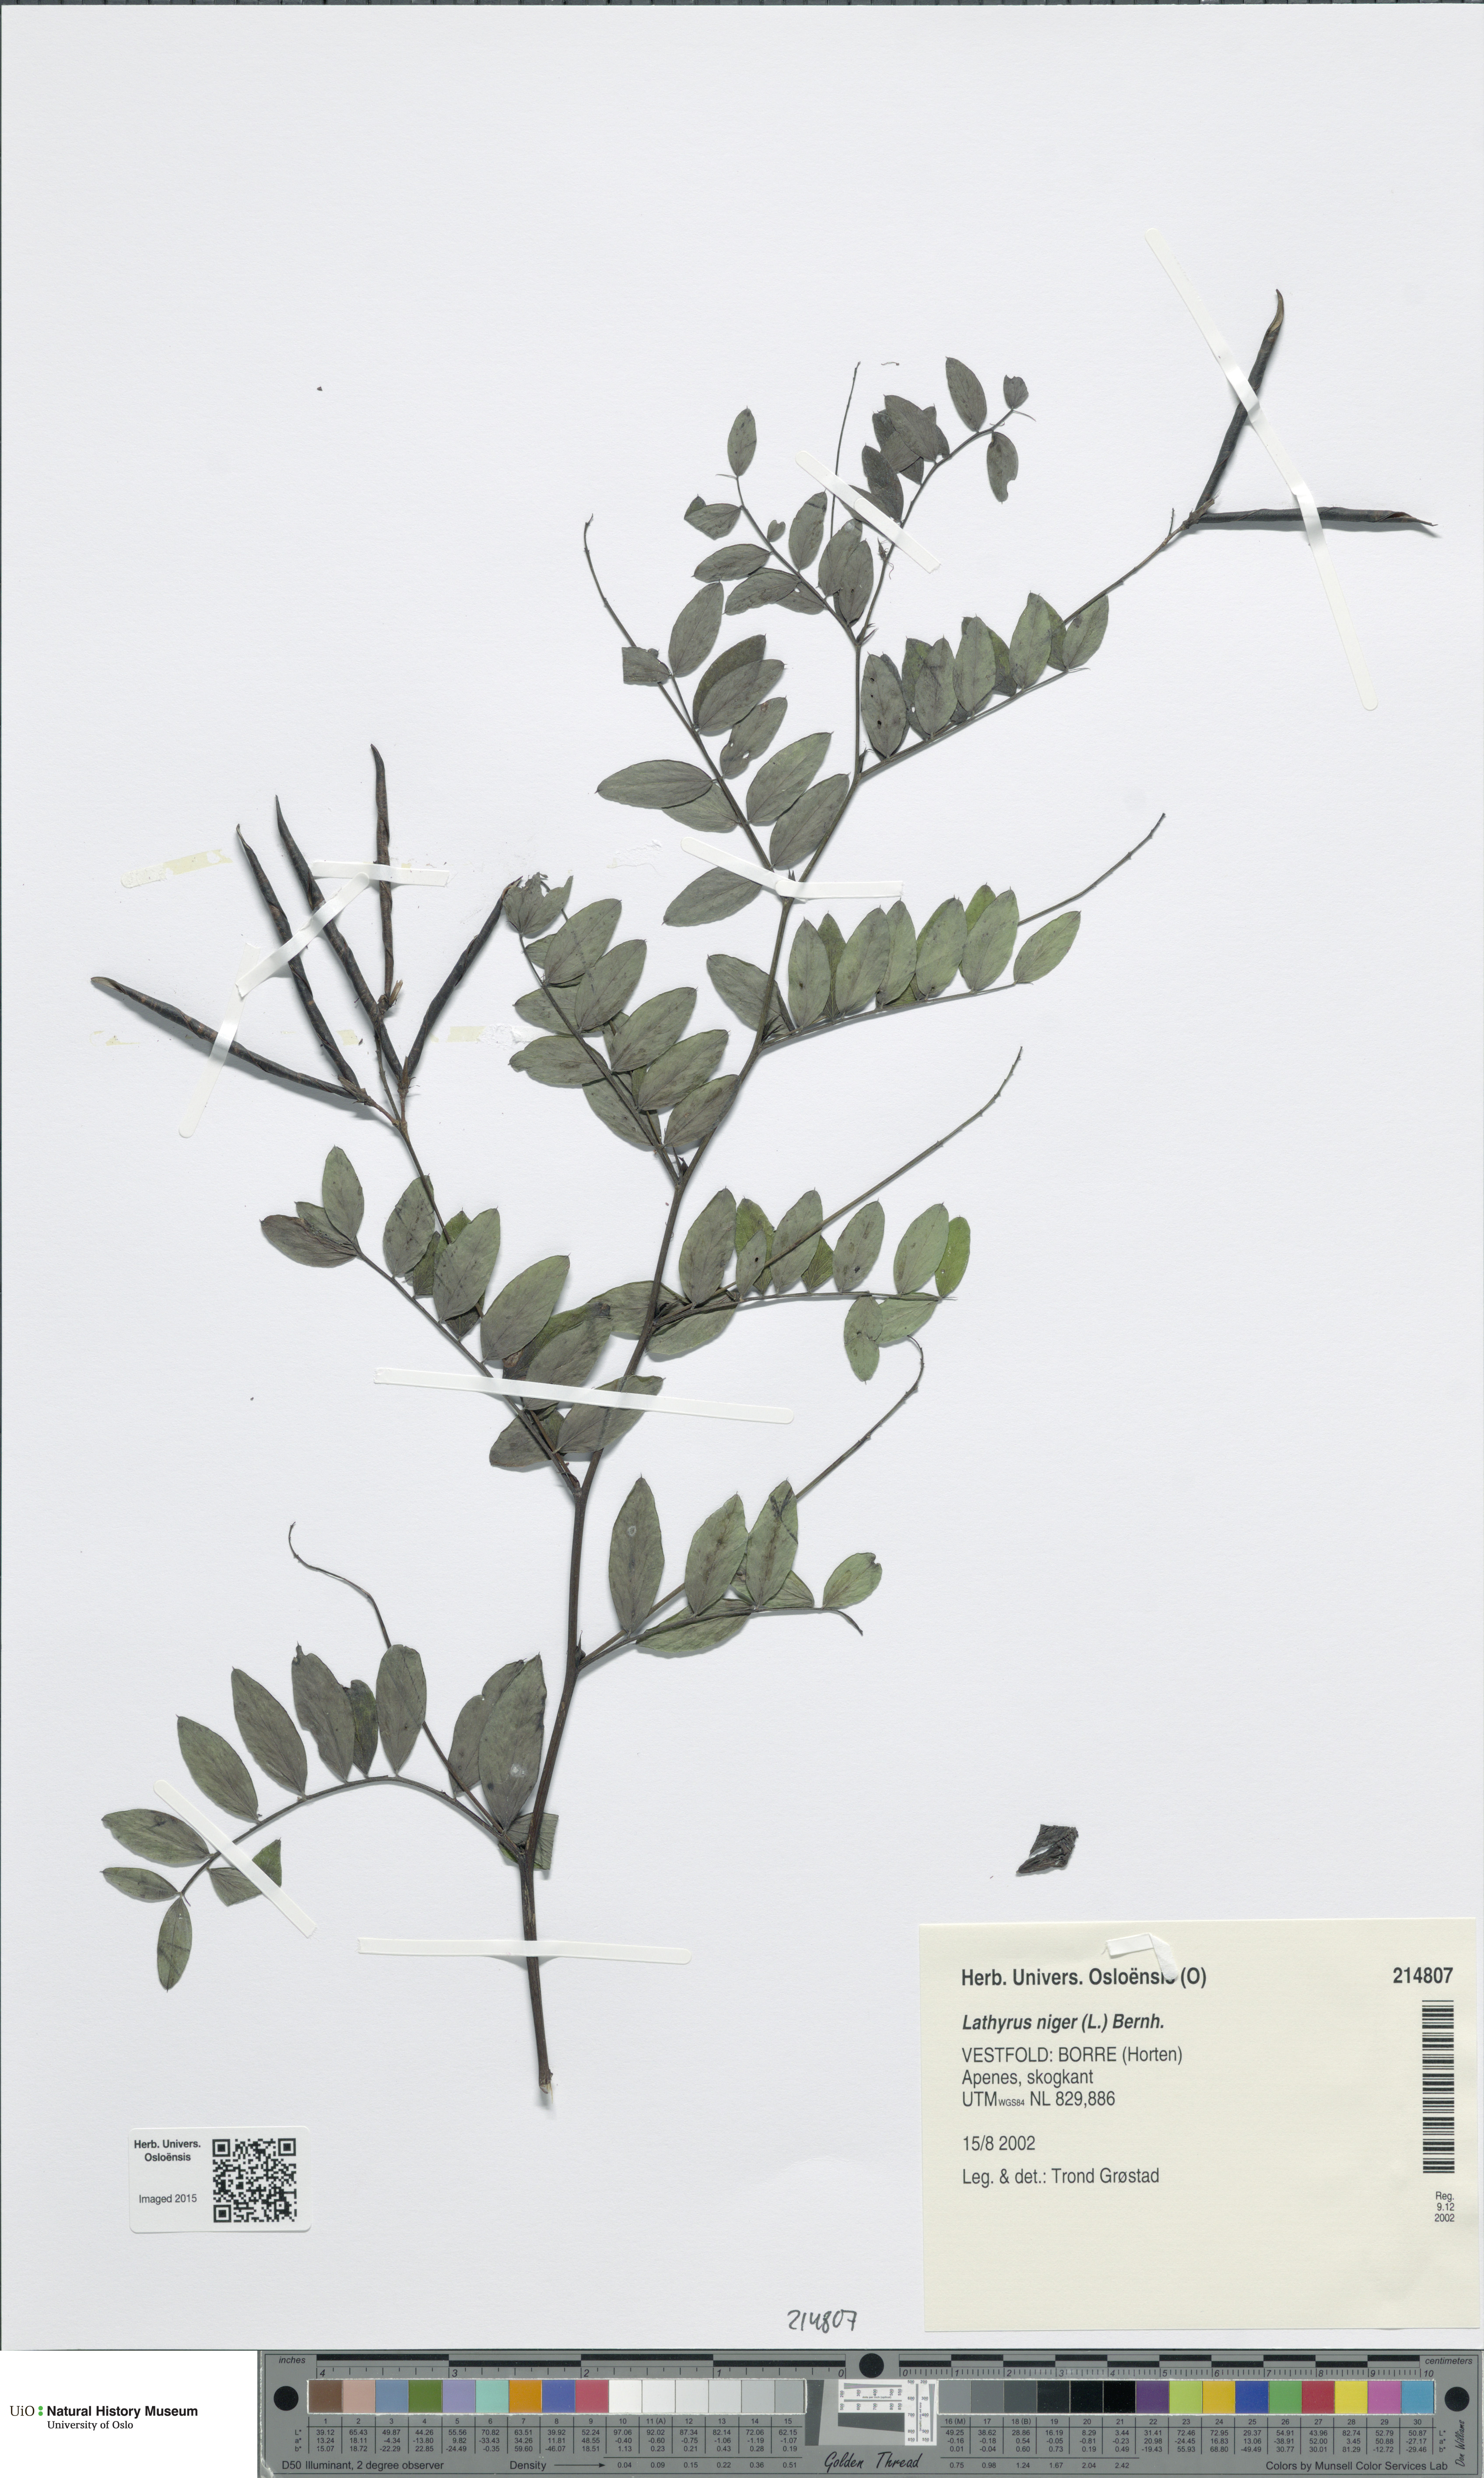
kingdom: Plantae
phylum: Tracheophyta
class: Magnoliopsida
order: Fabales
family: Fabaceae
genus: Lathyrus
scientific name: Lathyrus niger
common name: Black pea
